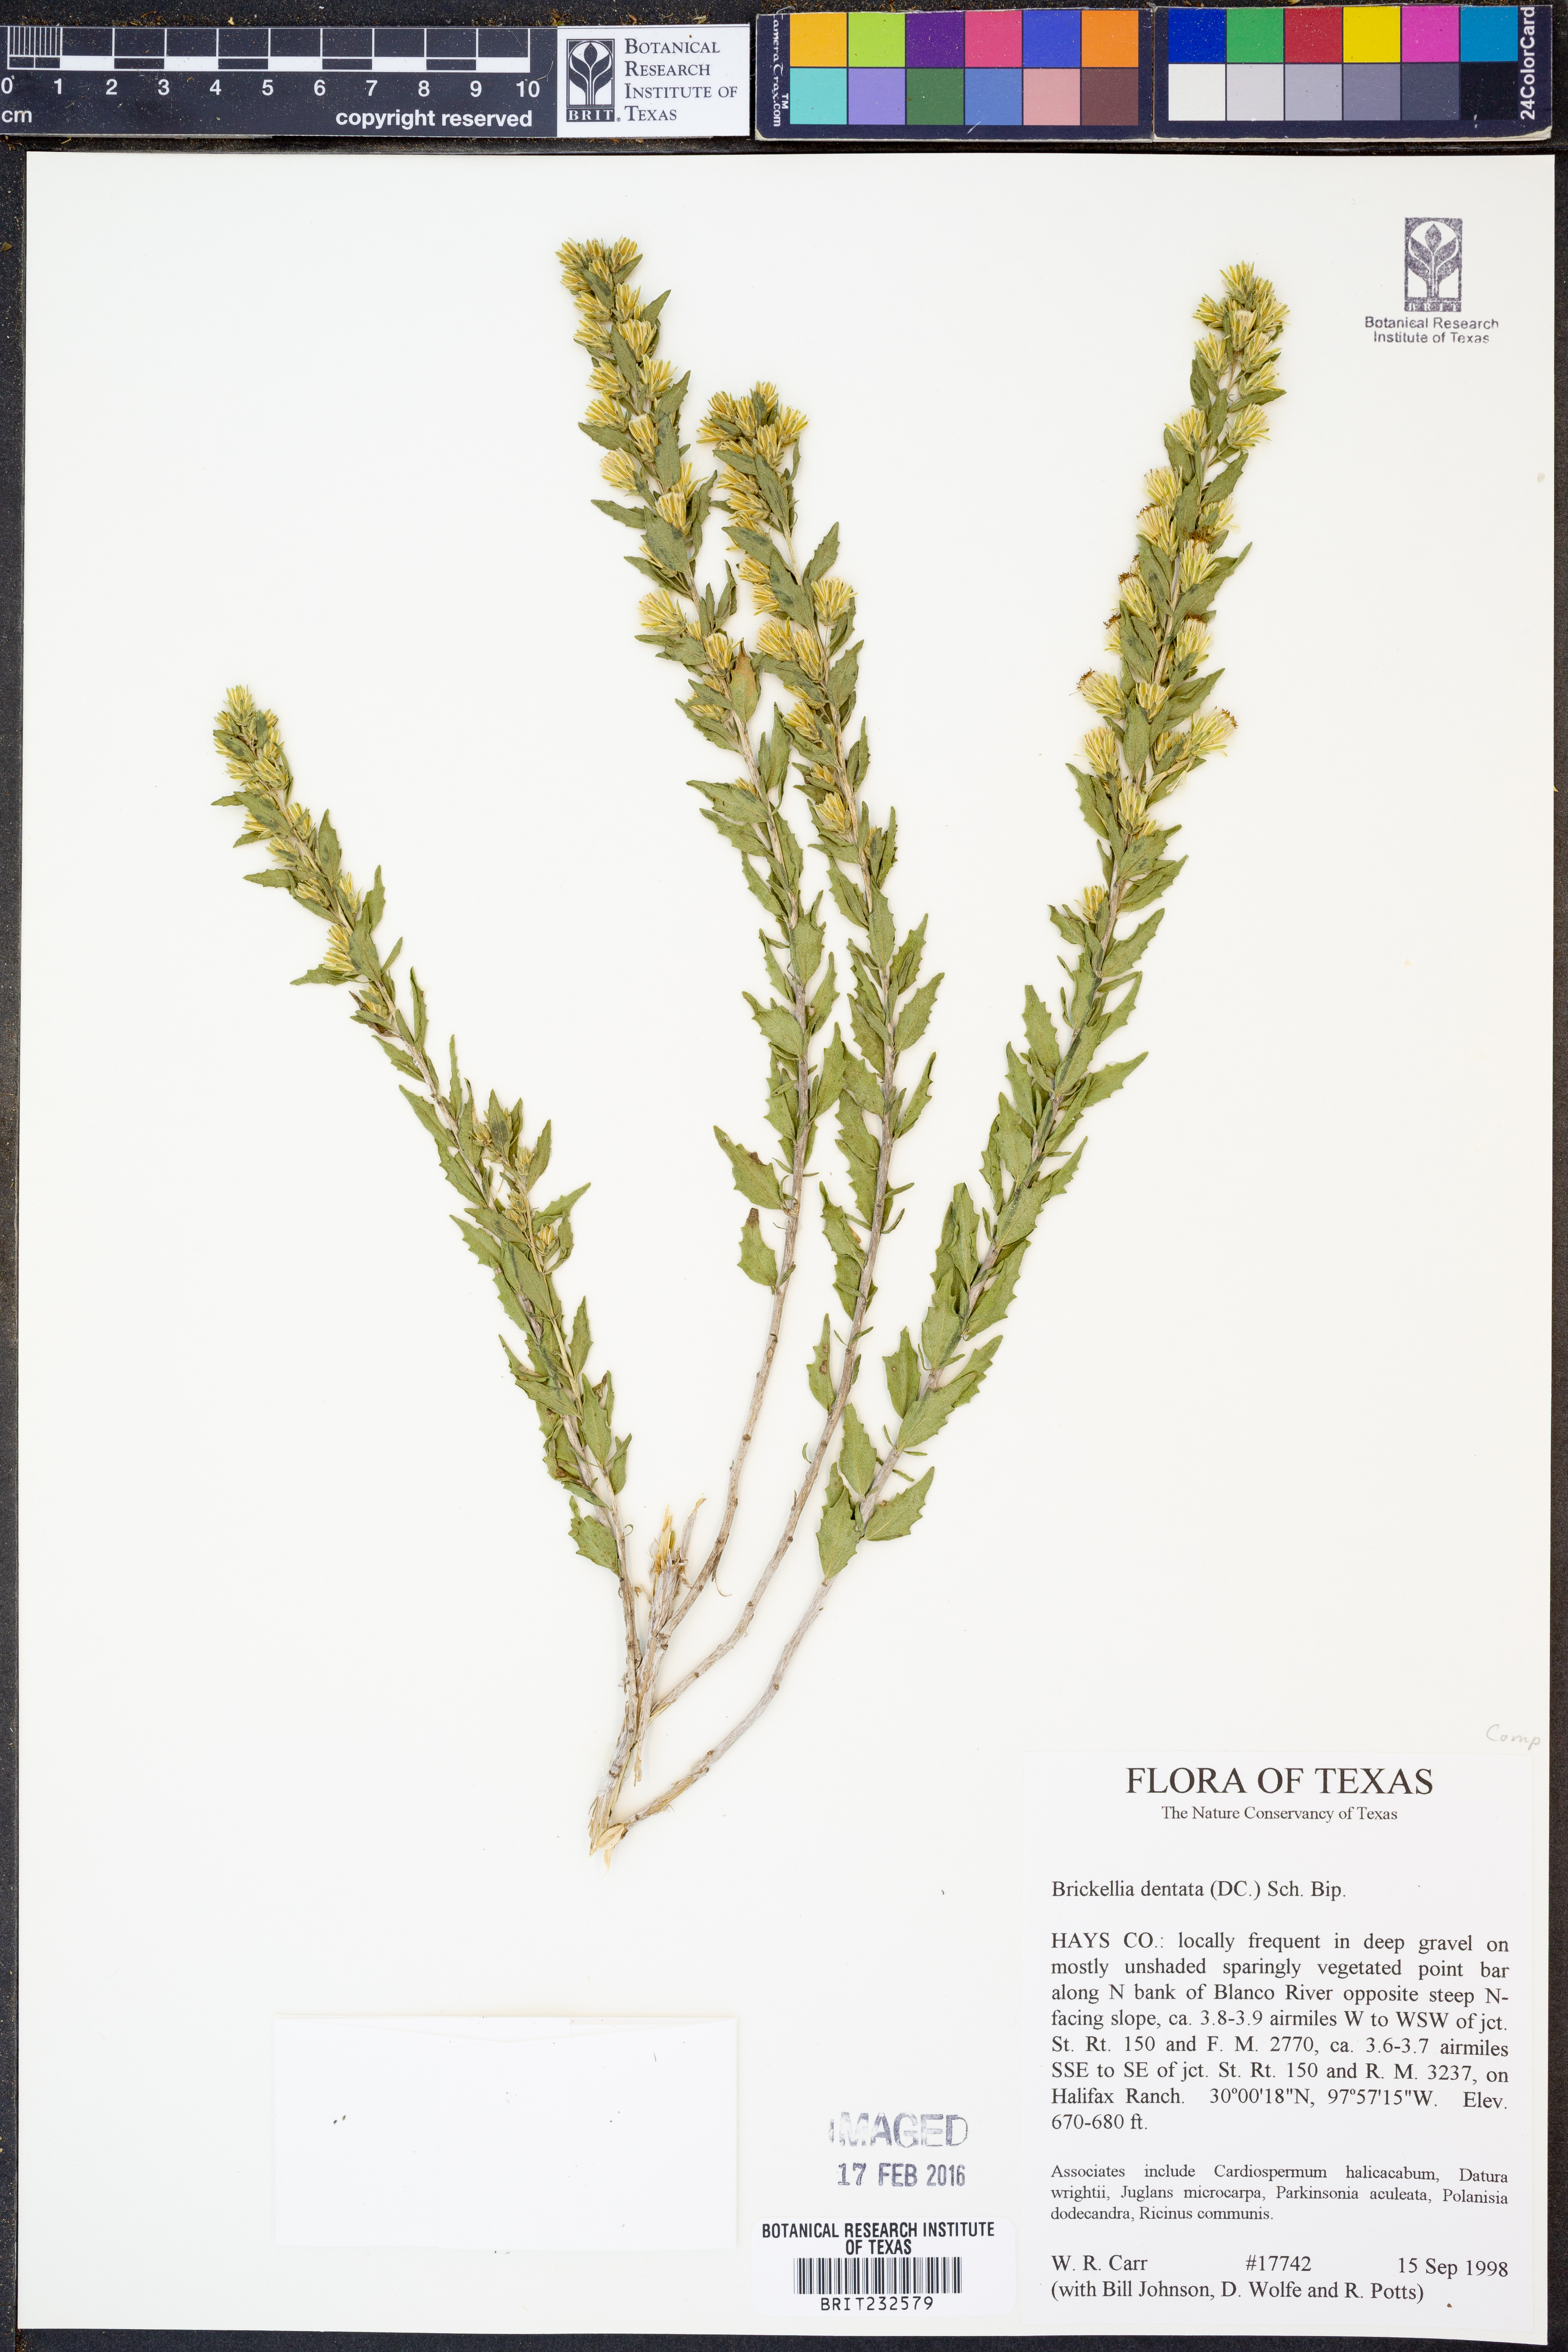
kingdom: Plantae
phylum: Tracheophyta
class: Magnoliopsida
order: Asterales
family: Asteraceae
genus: Brickellia
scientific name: Brickellia dentata
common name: Leafy brickellbush
